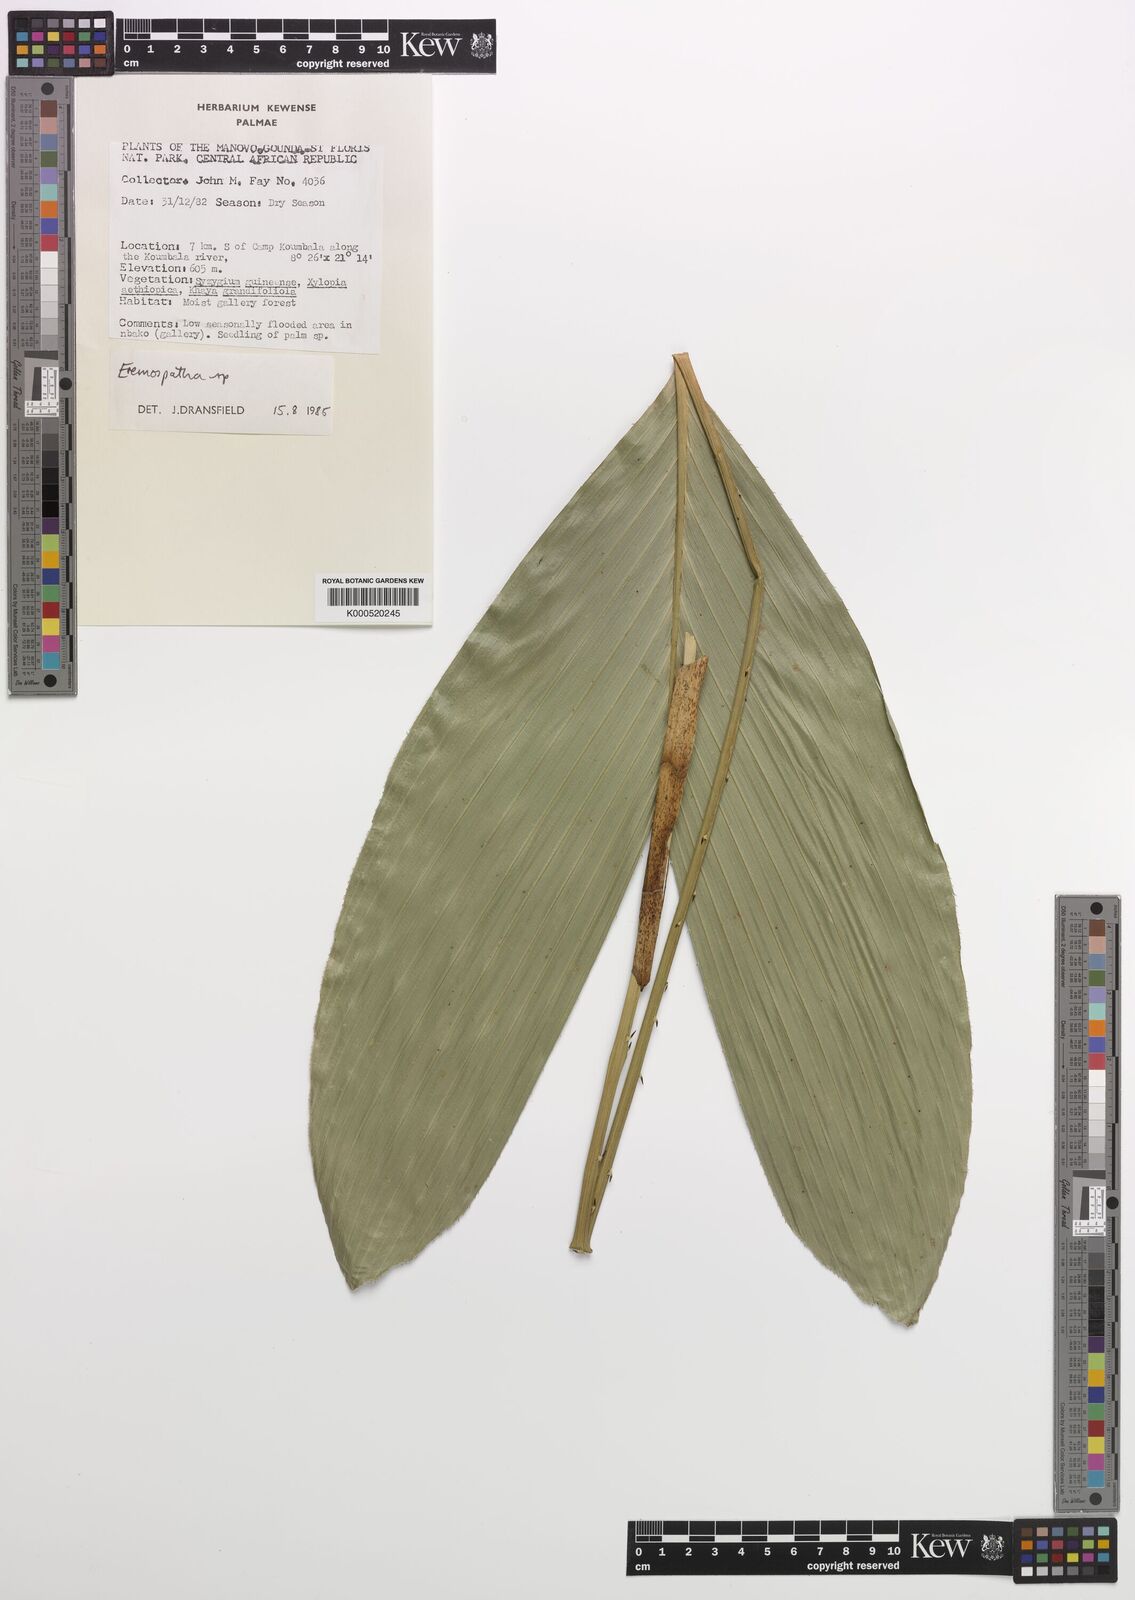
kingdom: Plantae
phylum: Tracheophyta
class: Liliopsida
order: Arecales
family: Arecaceae
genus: Eremospatha
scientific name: Eremospatha
